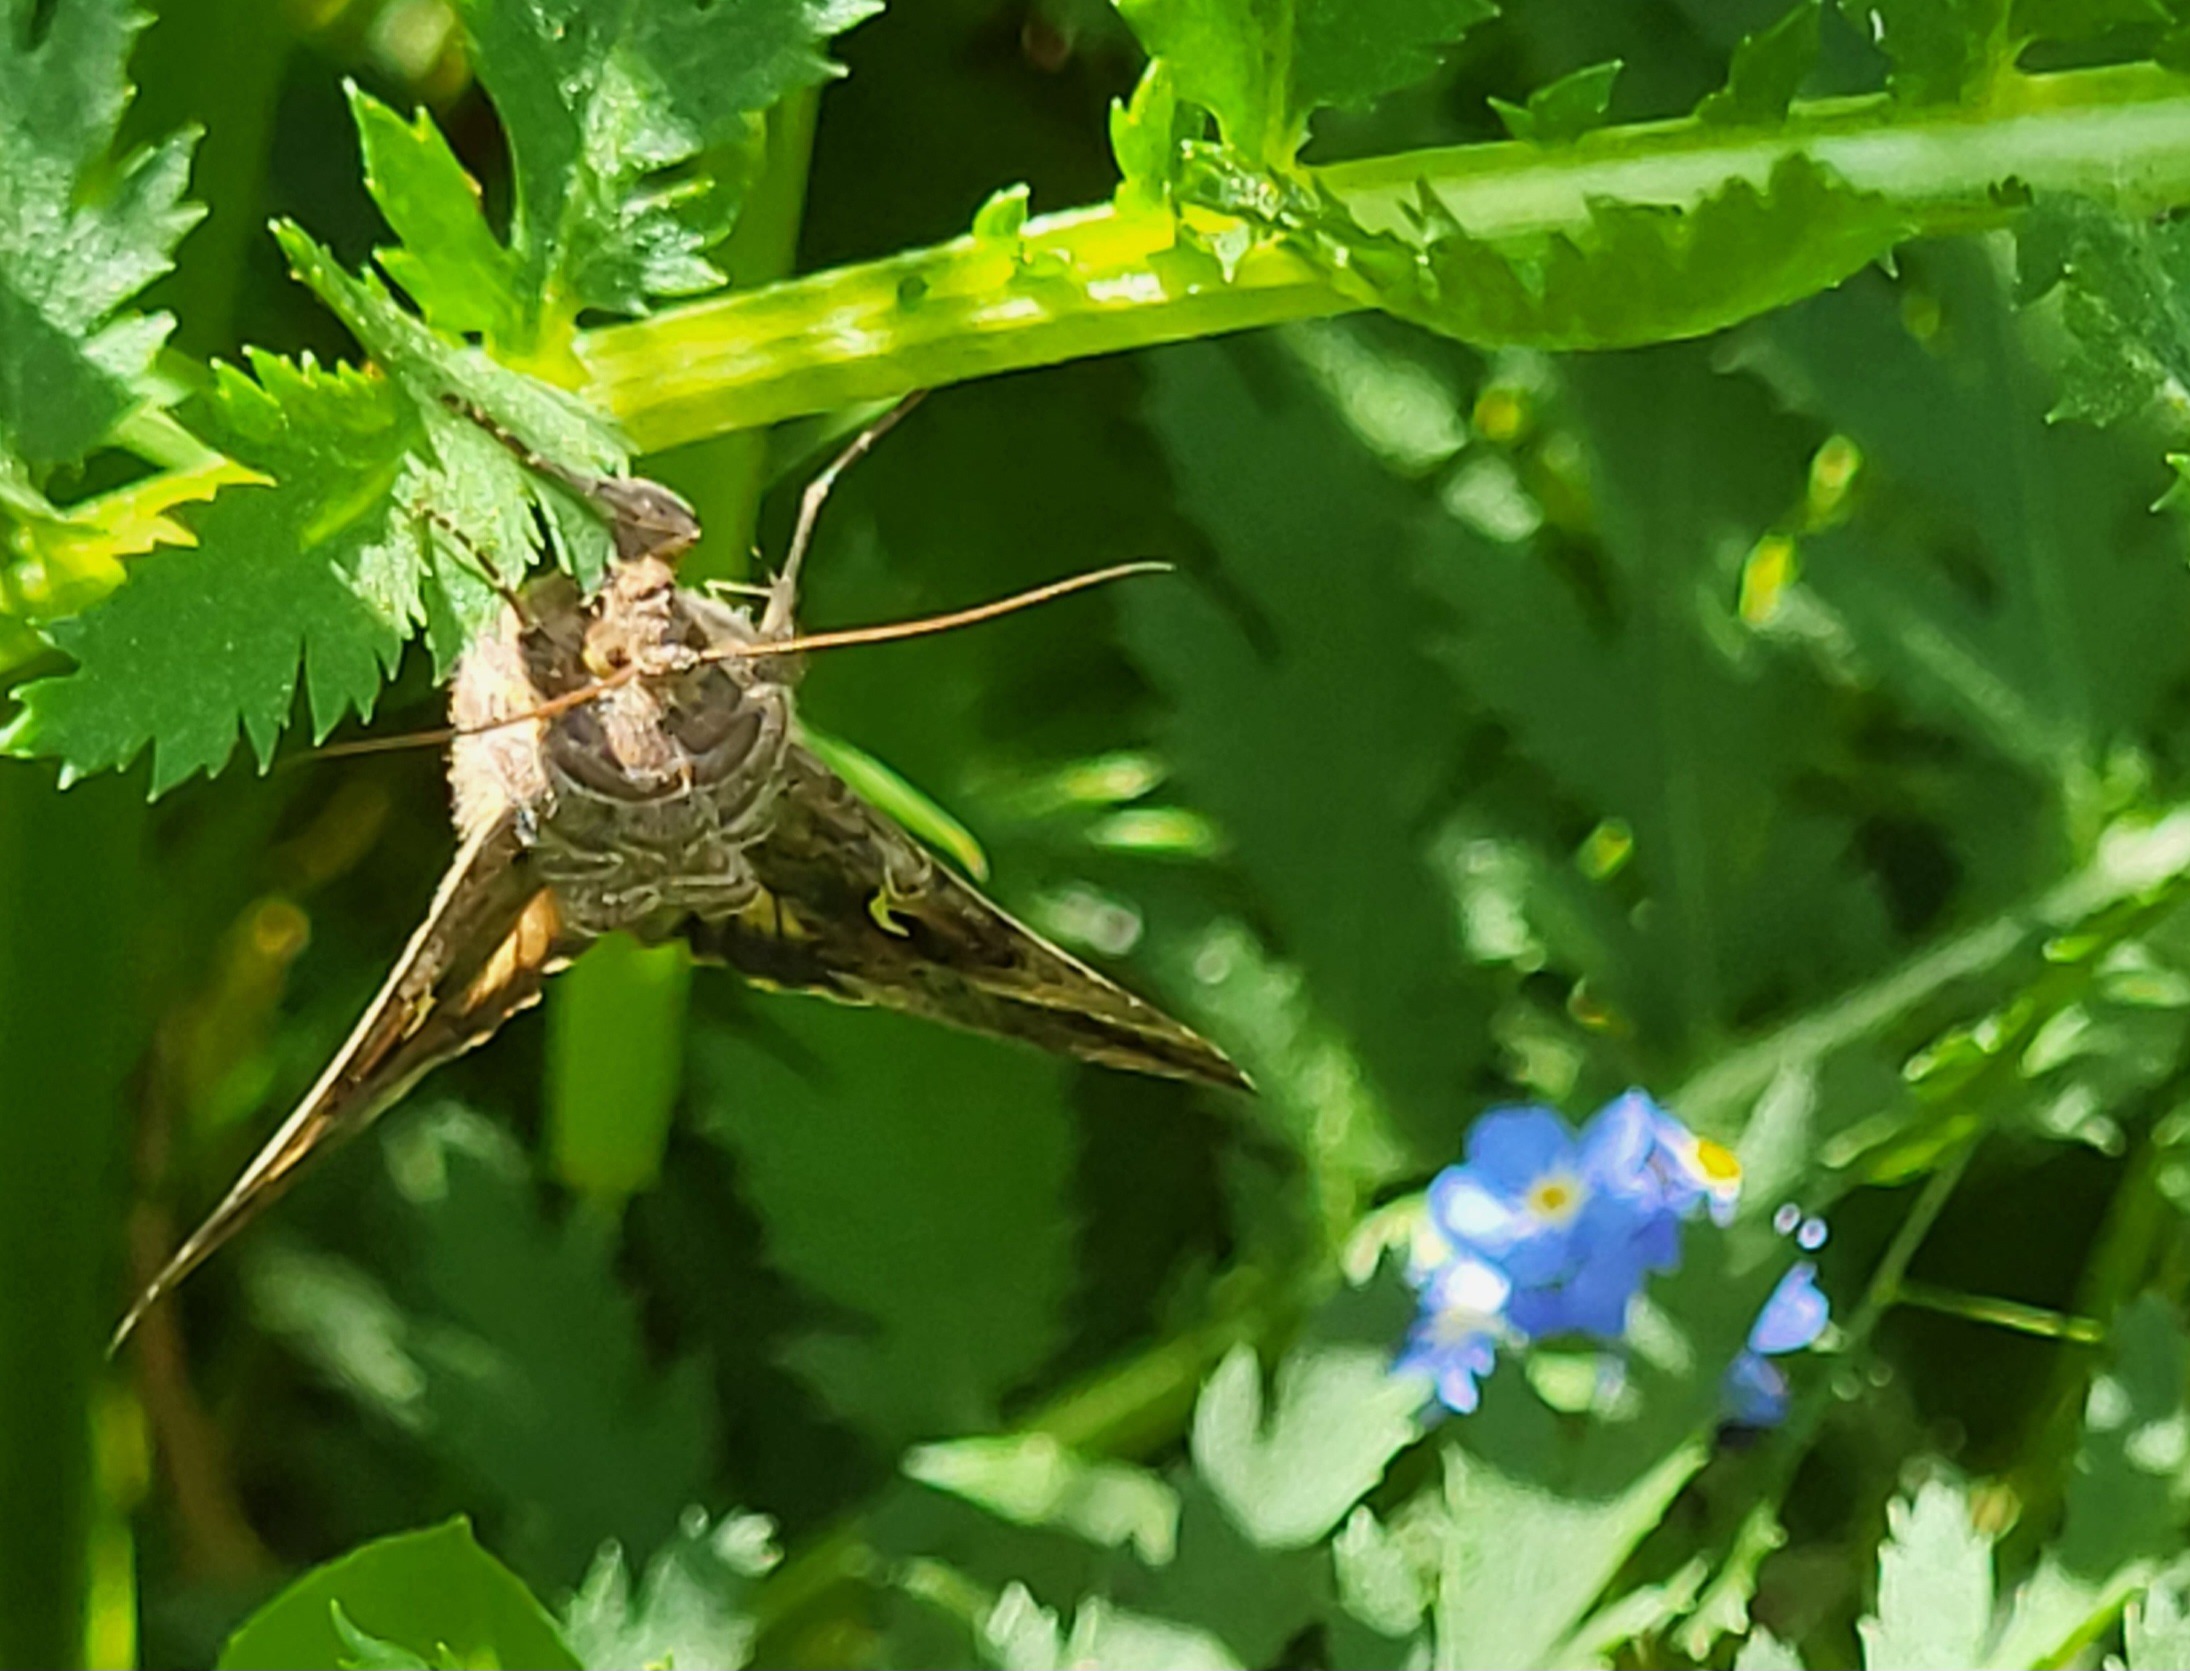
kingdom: Animalia
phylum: Arthropoda
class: Insecta
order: Lepidoptera
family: Noctuidae
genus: Autographa
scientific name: Autographa gamma
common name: Gammaugle
